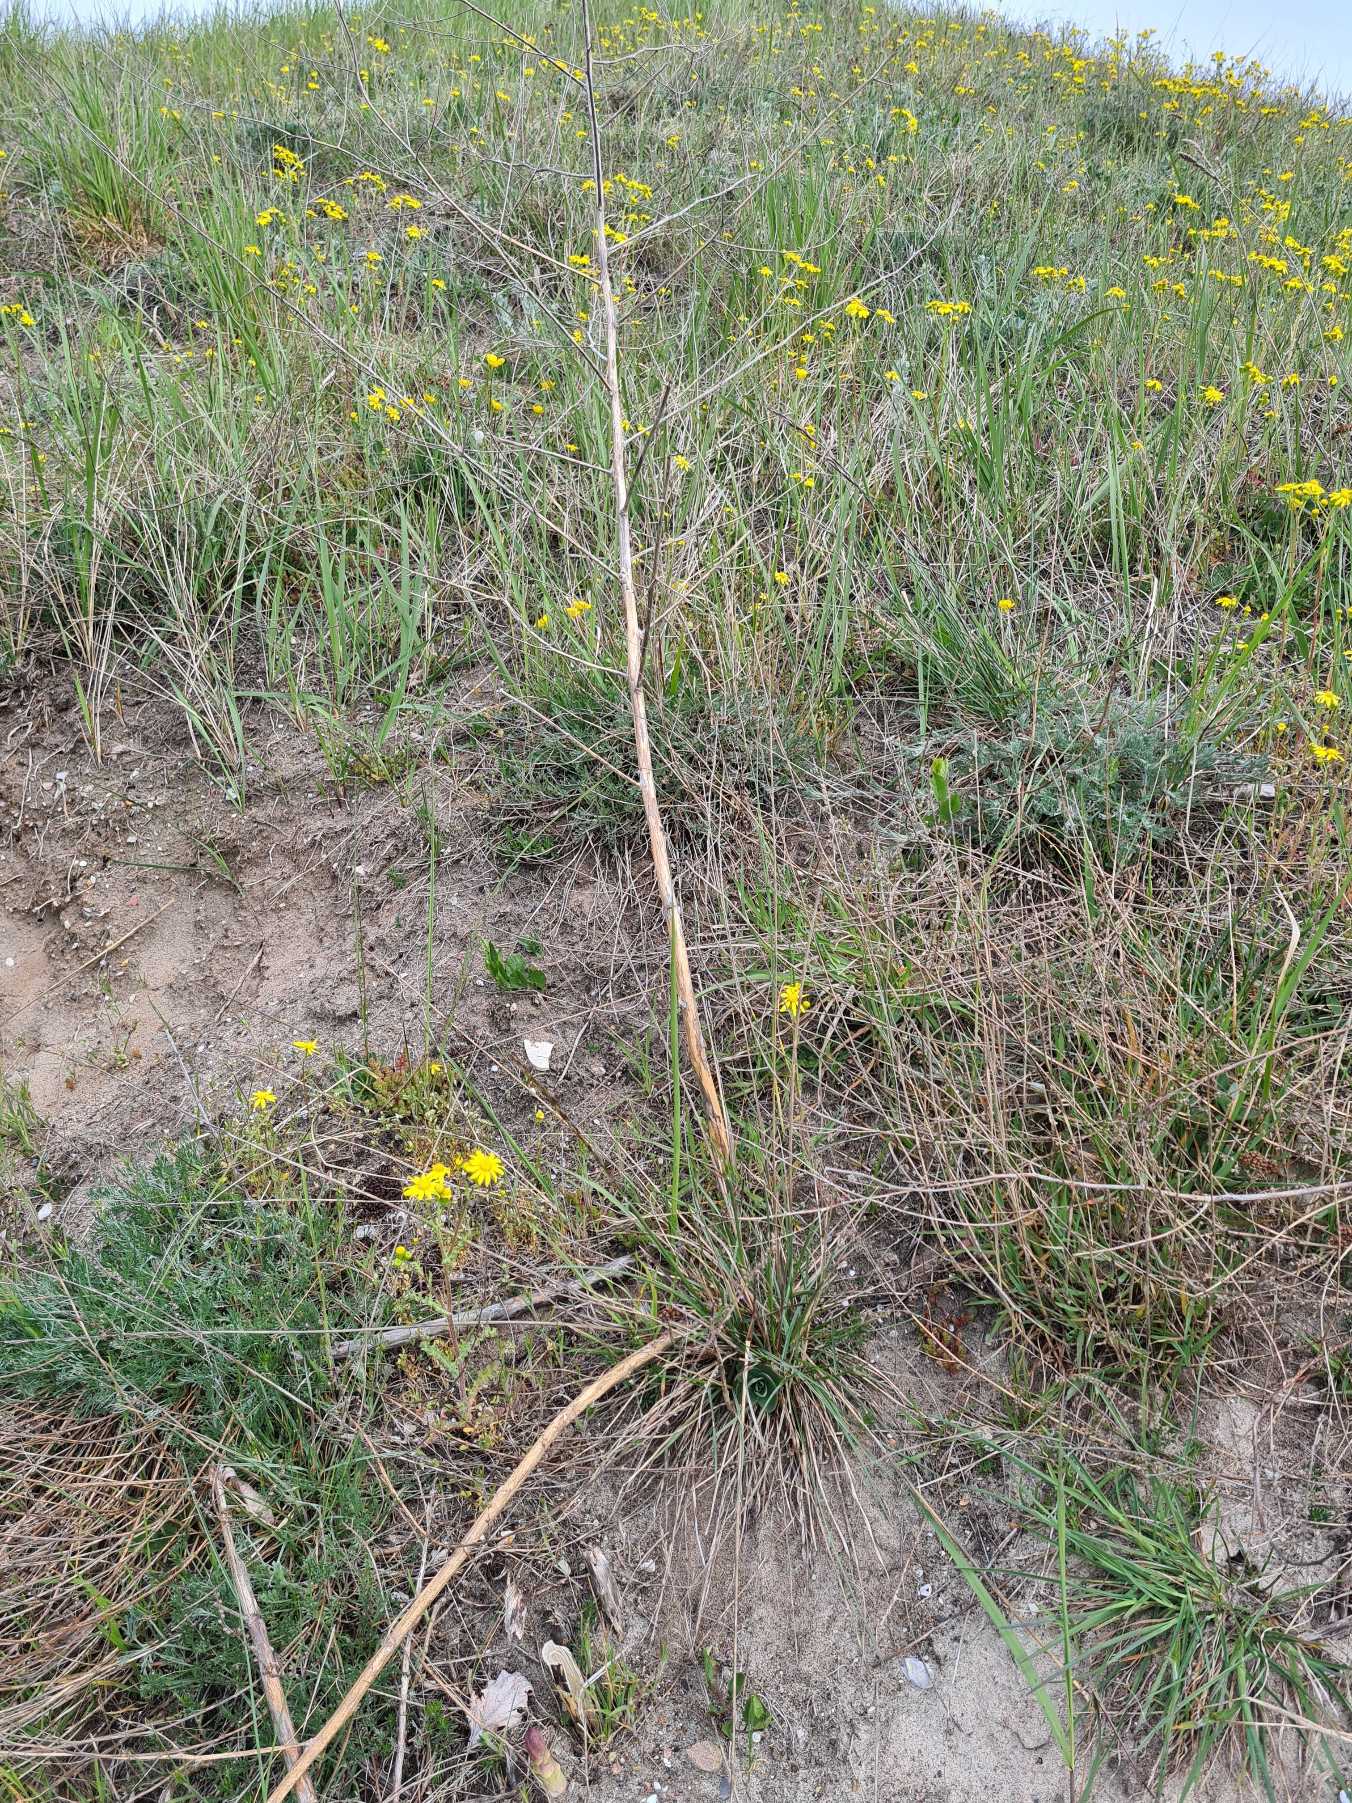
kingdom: Plantae
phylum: Tracheophyta
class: Liliopsida
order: Asparagales
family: Asparagaceae
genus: Asparagus
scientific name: Asparagus officinalis
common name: Asparges
